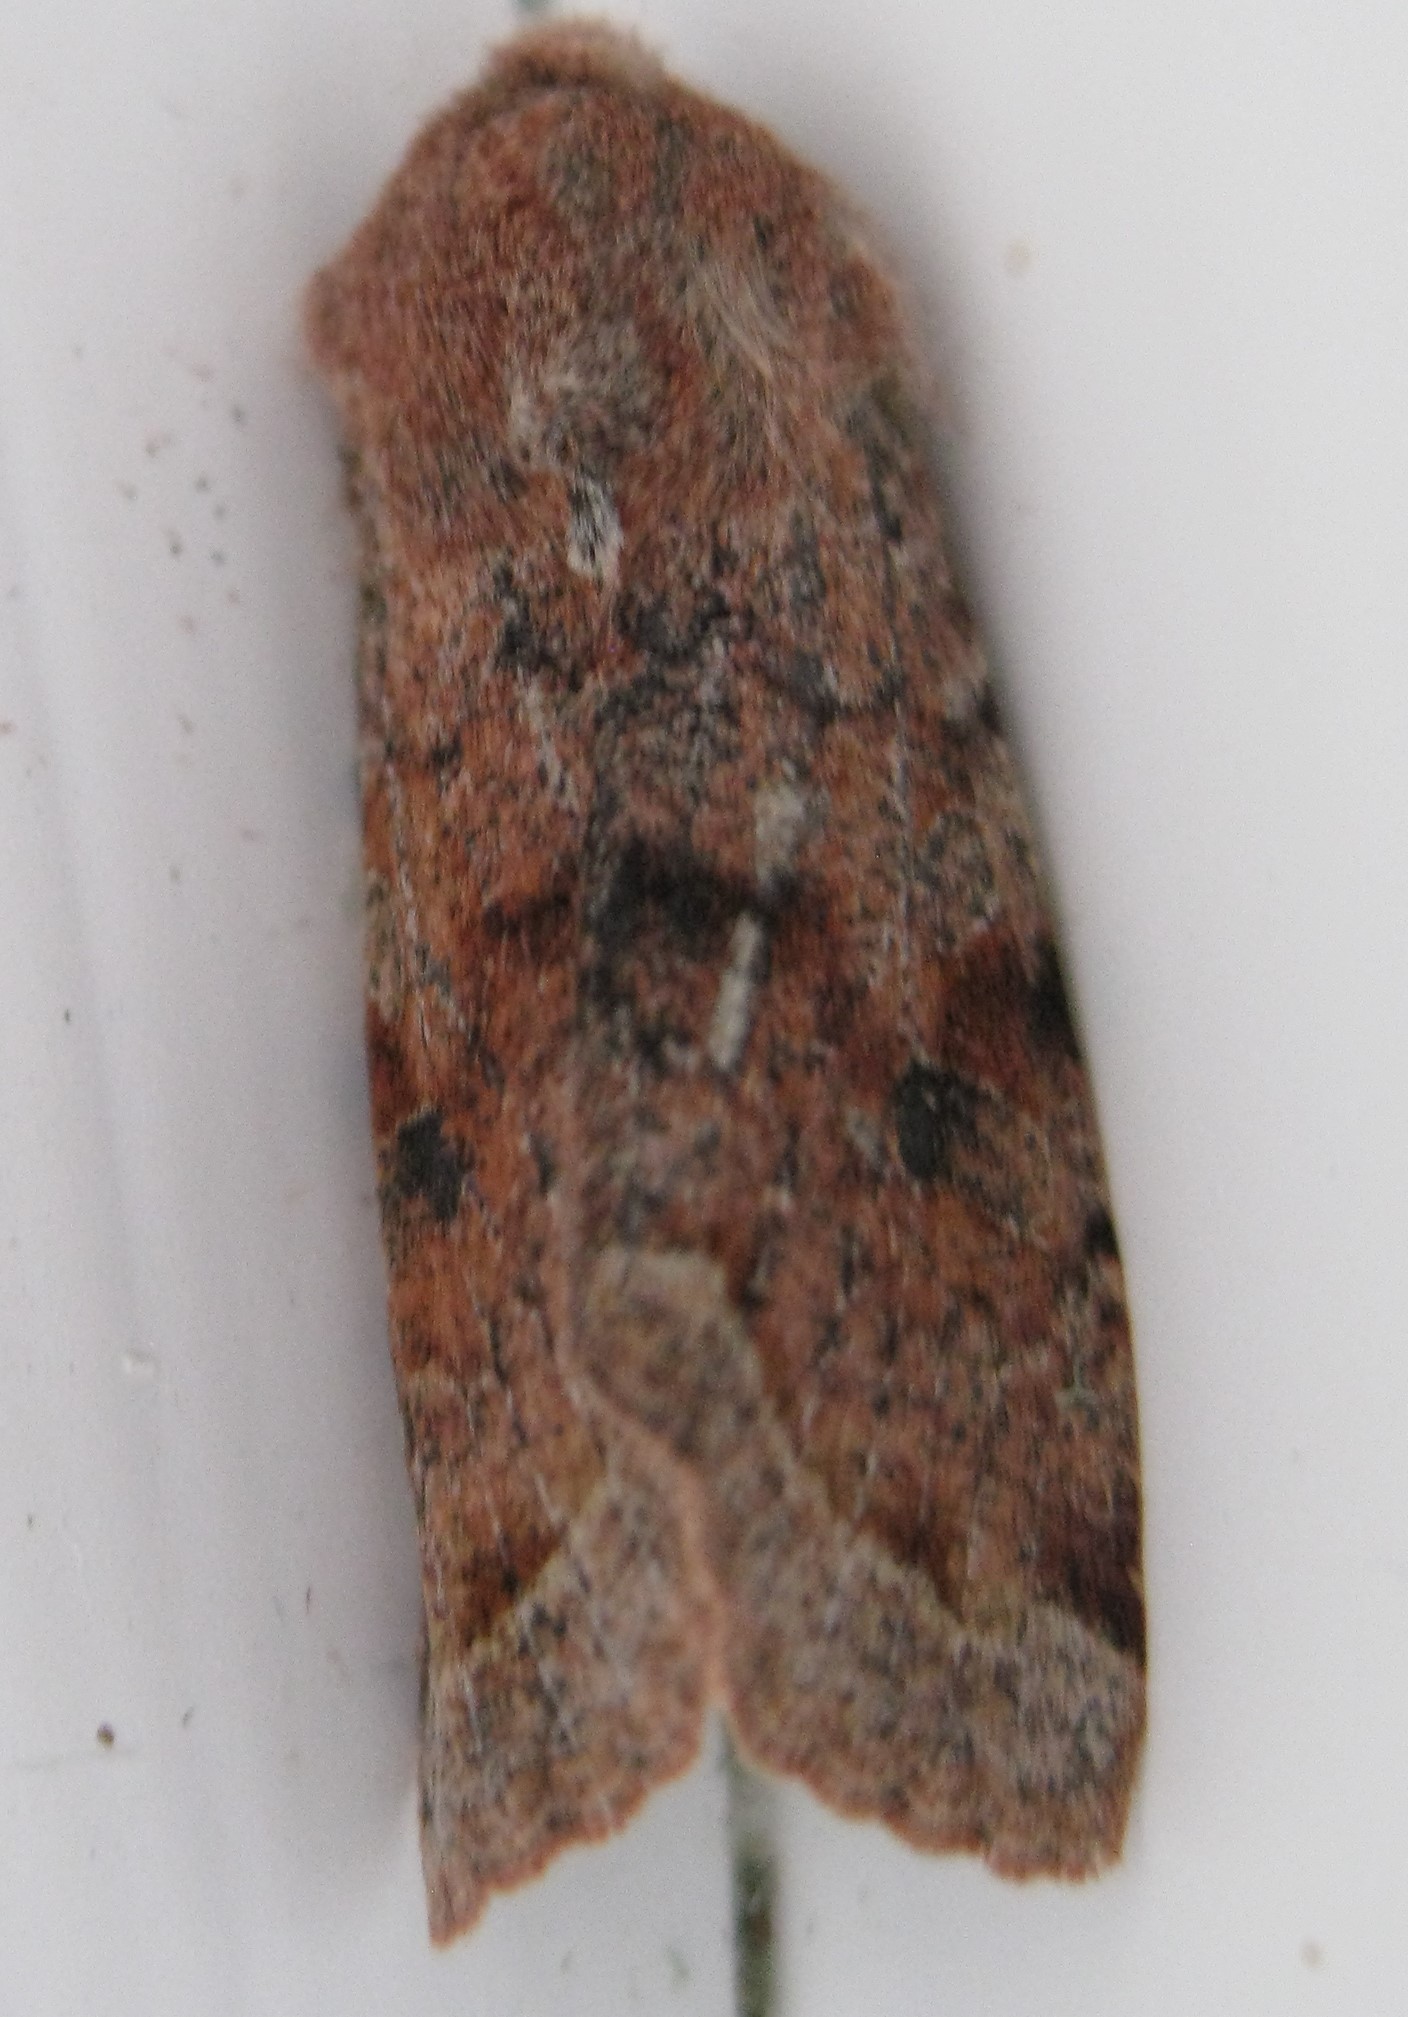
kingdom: Animalia
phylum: Arthropoda
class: Insecta
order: Lepidoptera
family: Noctuidae
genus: Orthosia
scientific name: Orthosia incerta
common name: Clouded drab
